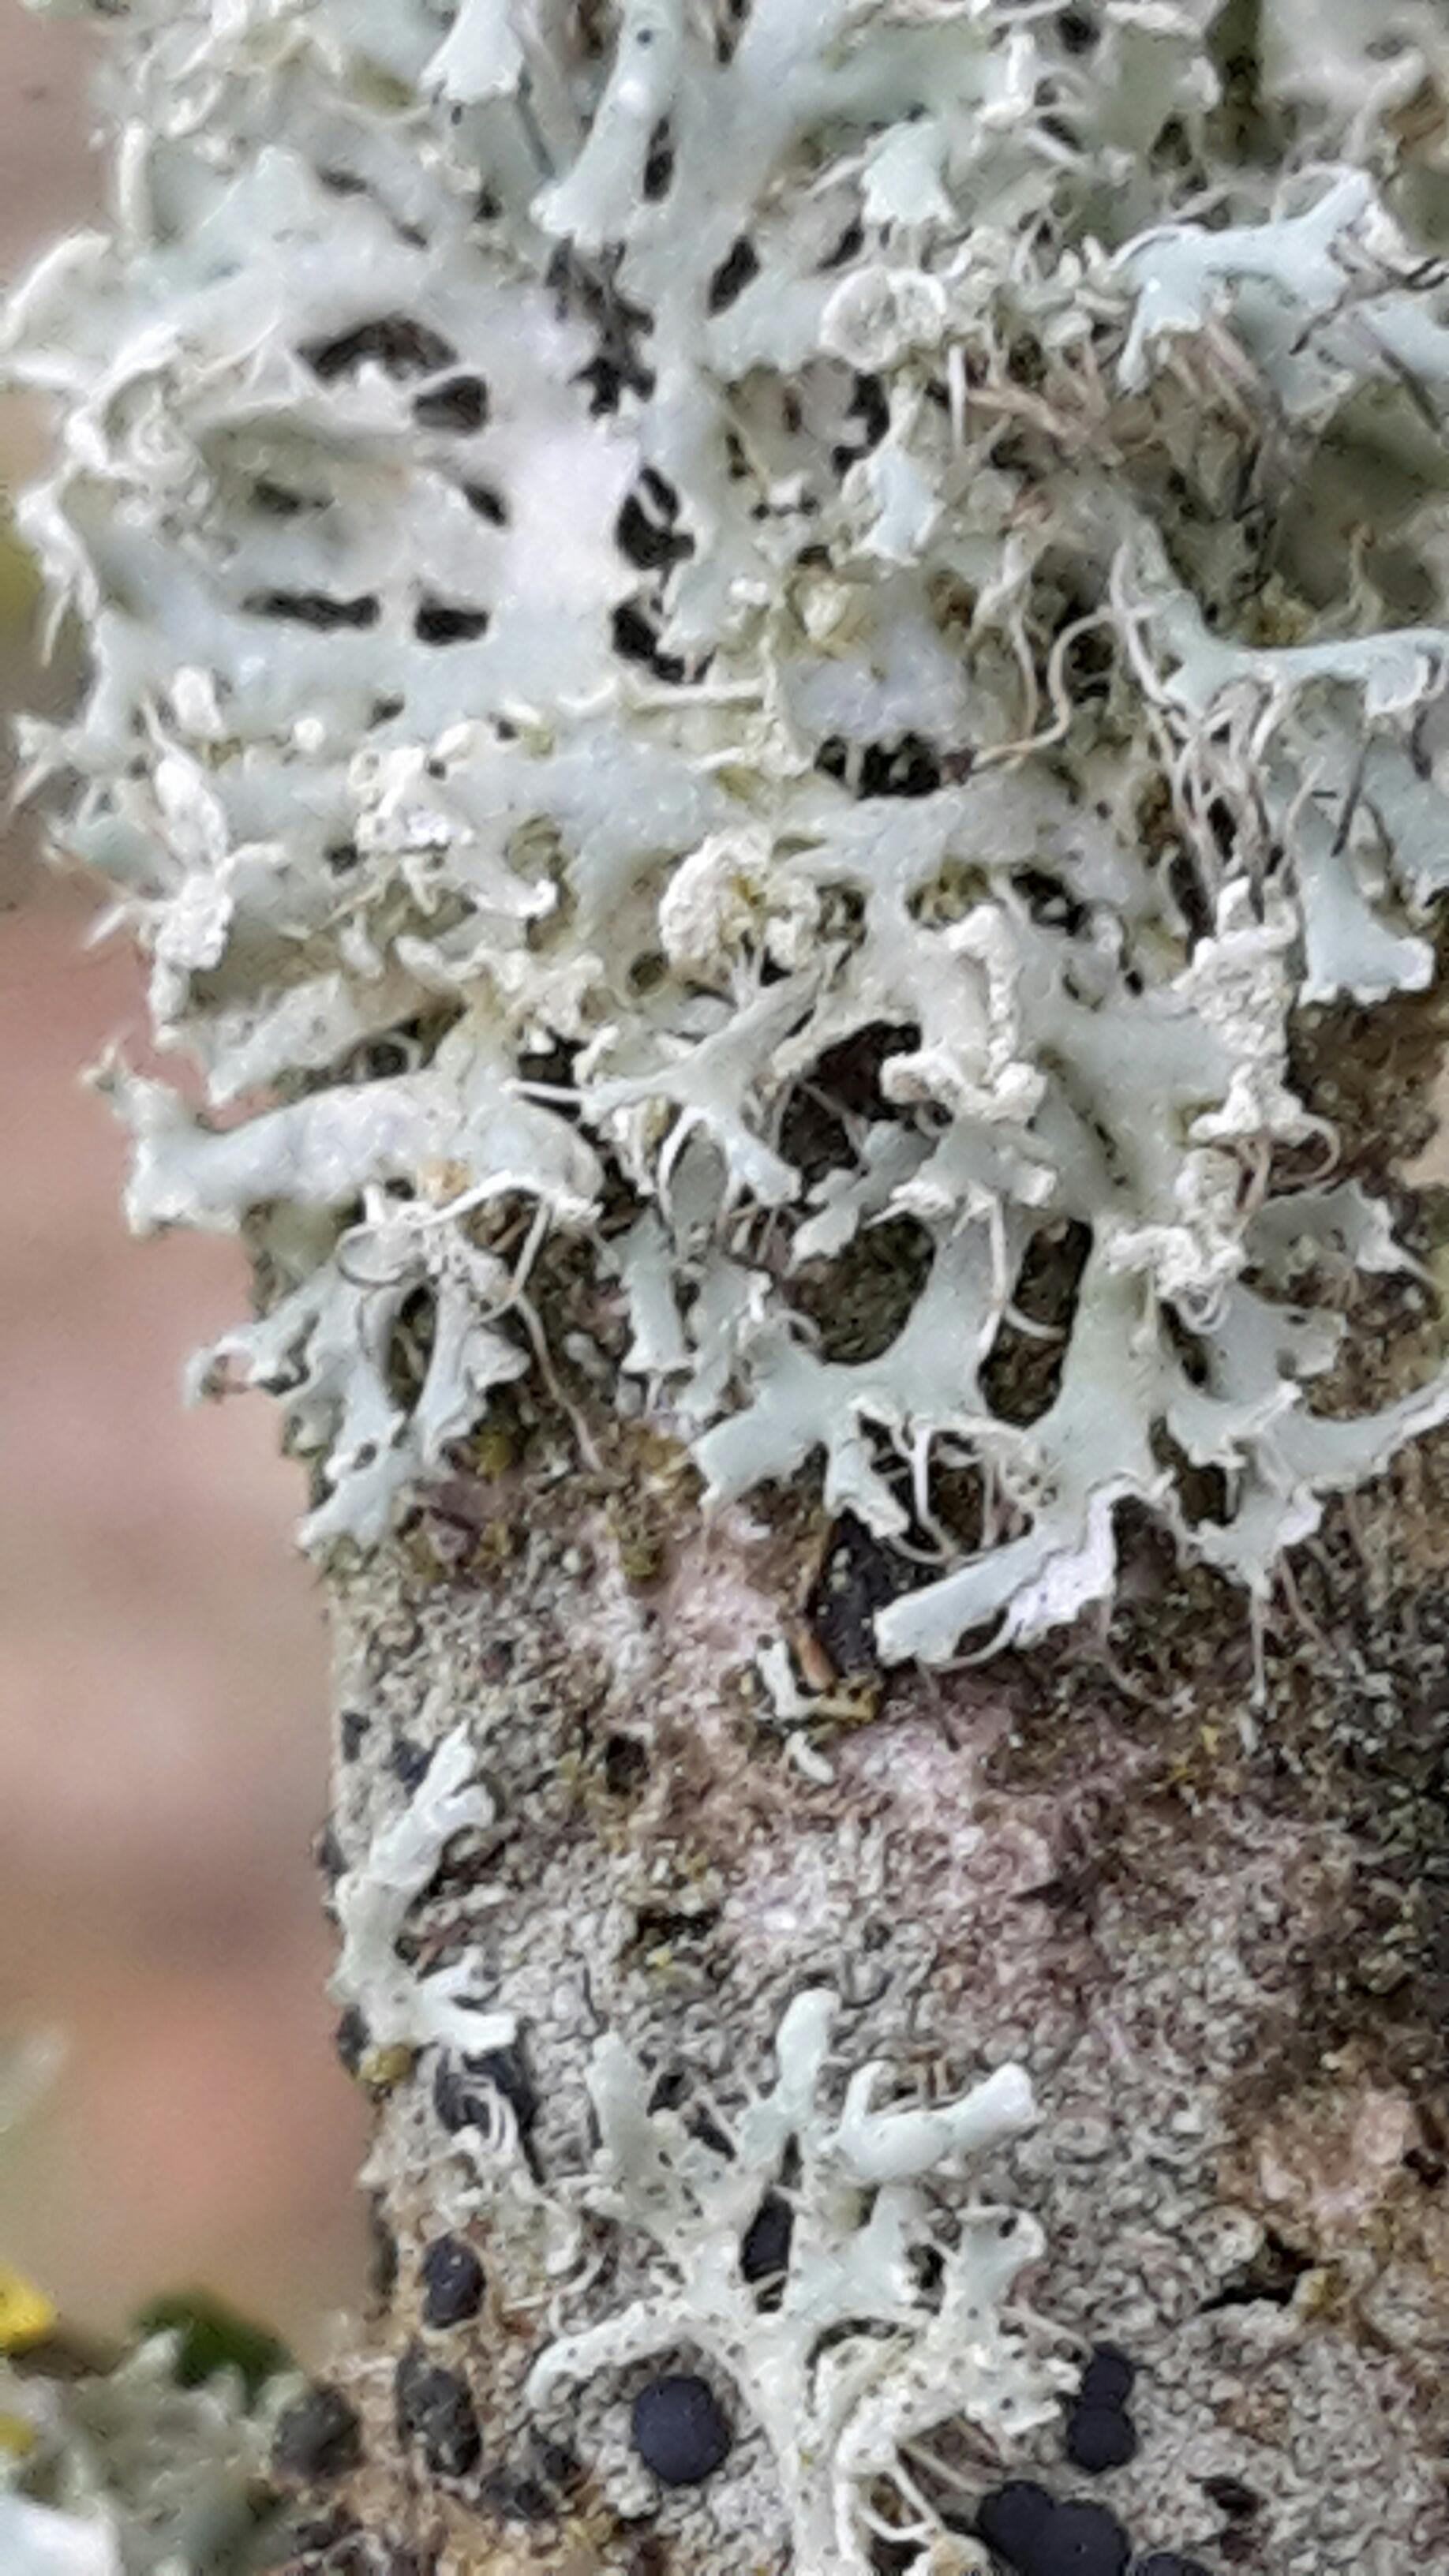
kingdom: Fungi
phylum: Ascomycota
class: Lecanoromycetes
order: Caliciales
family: Physciaceae
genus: Physcia
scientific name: Physcia tenella
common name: spæd rosetlav
